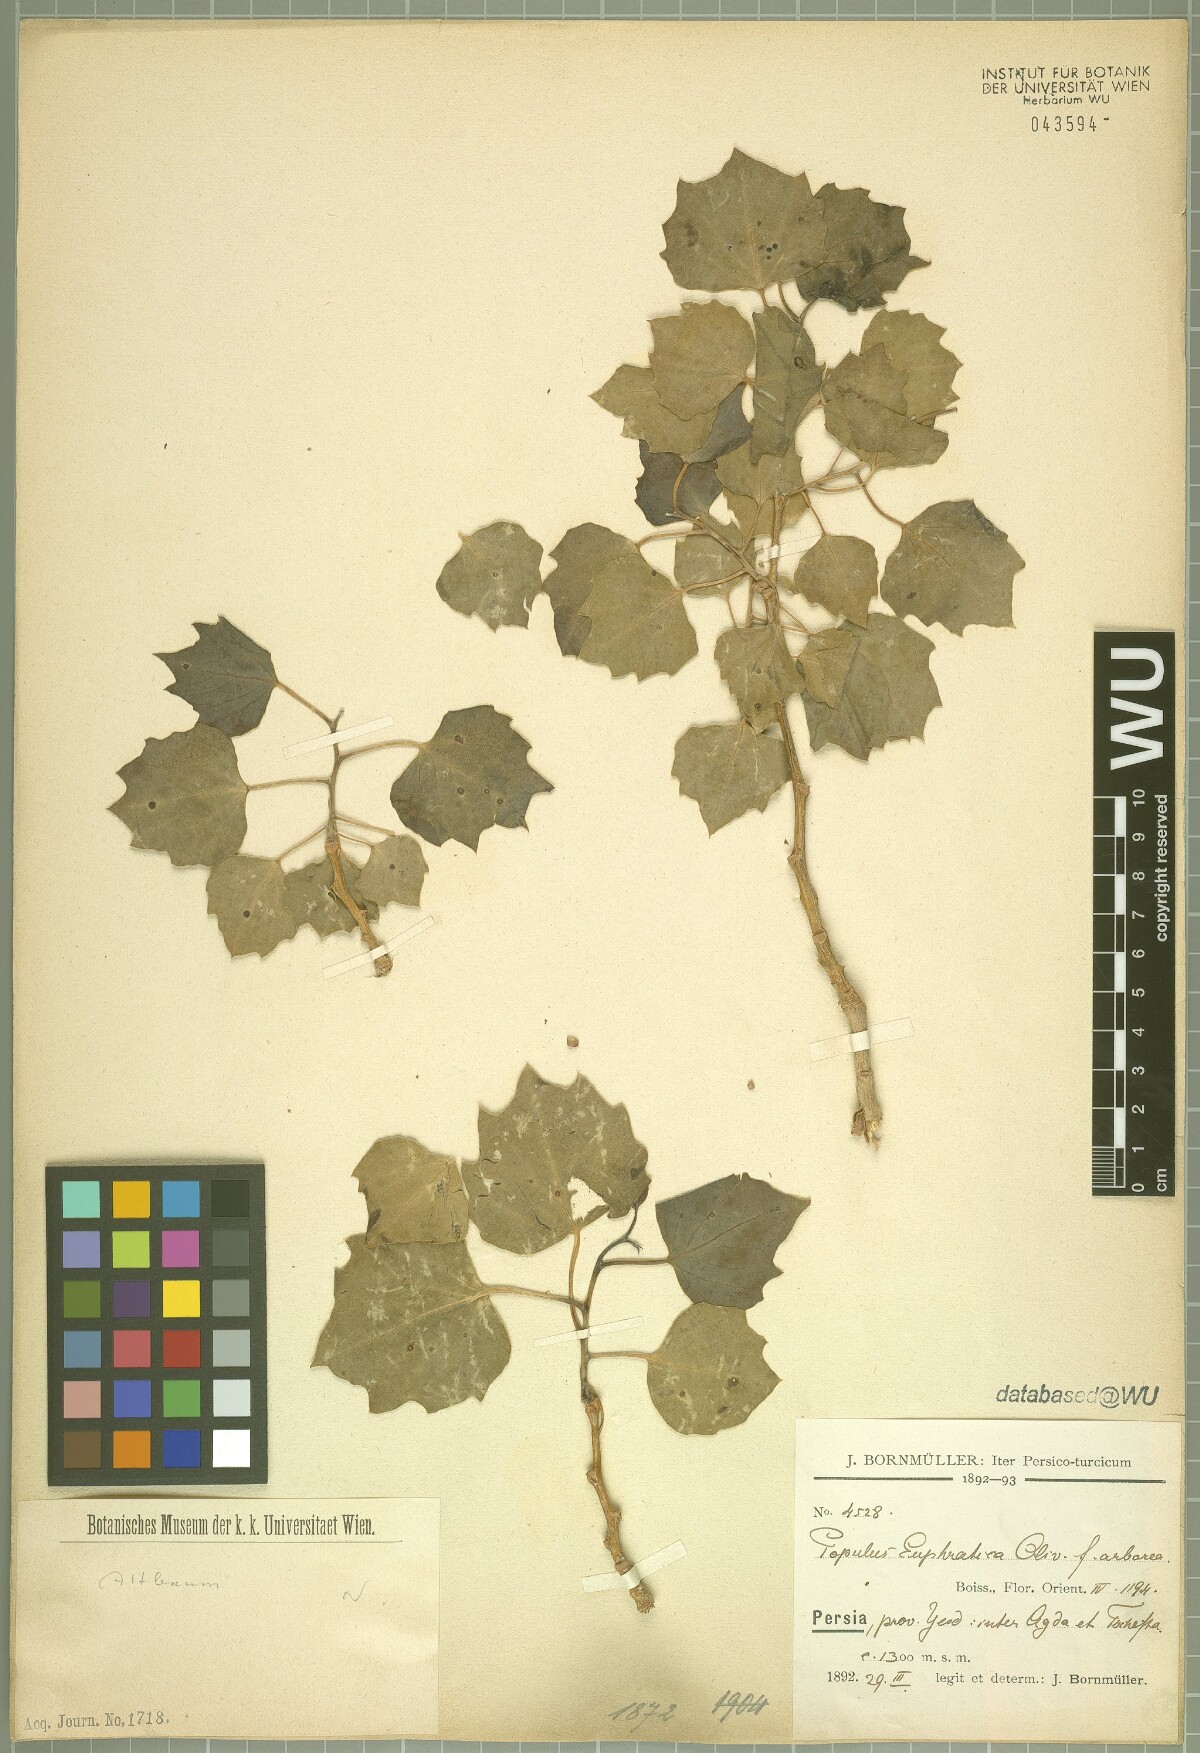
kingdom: Plantae
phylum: Tracheophyta
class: Magnoliopsida
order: Malpighiales
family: Salicaceae
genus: Populus
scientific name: Populus euphratica
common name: Euphrates poplar
